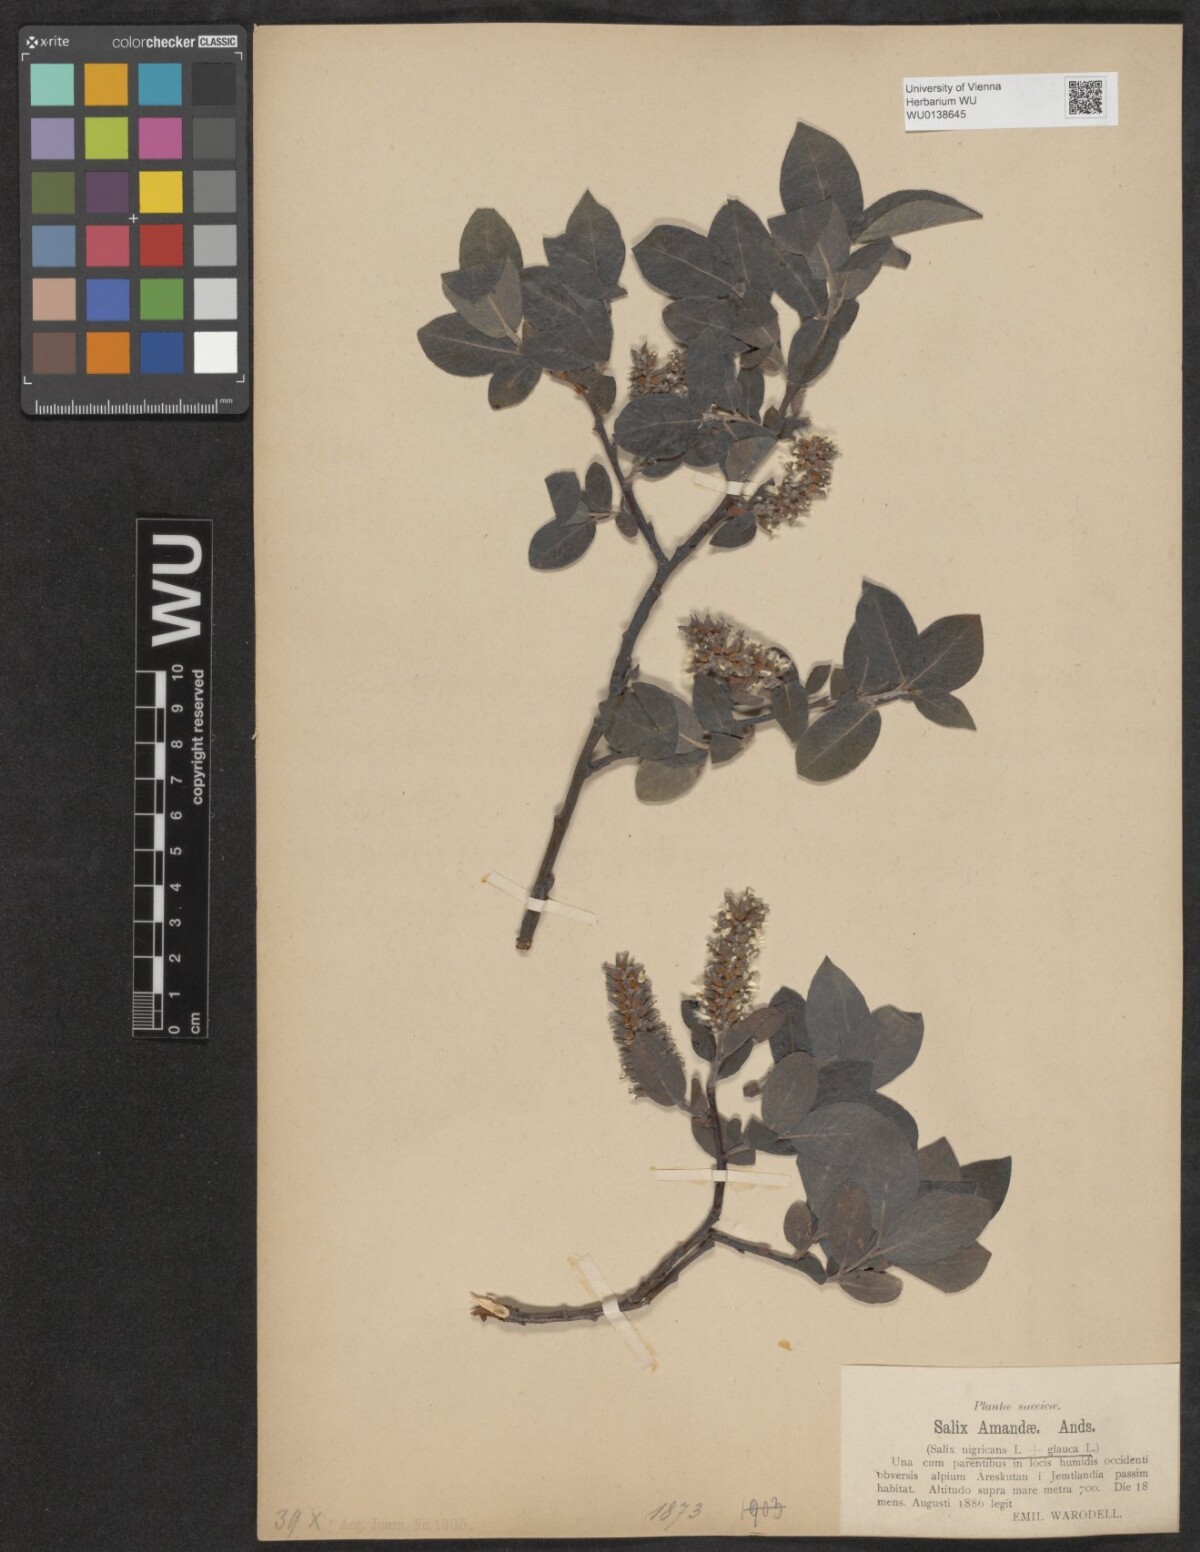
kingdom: Plantae
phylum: Tracheophyta
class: Magnoliopsida
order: Malpighiales
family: Salicaceae
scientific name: Salicaceae
